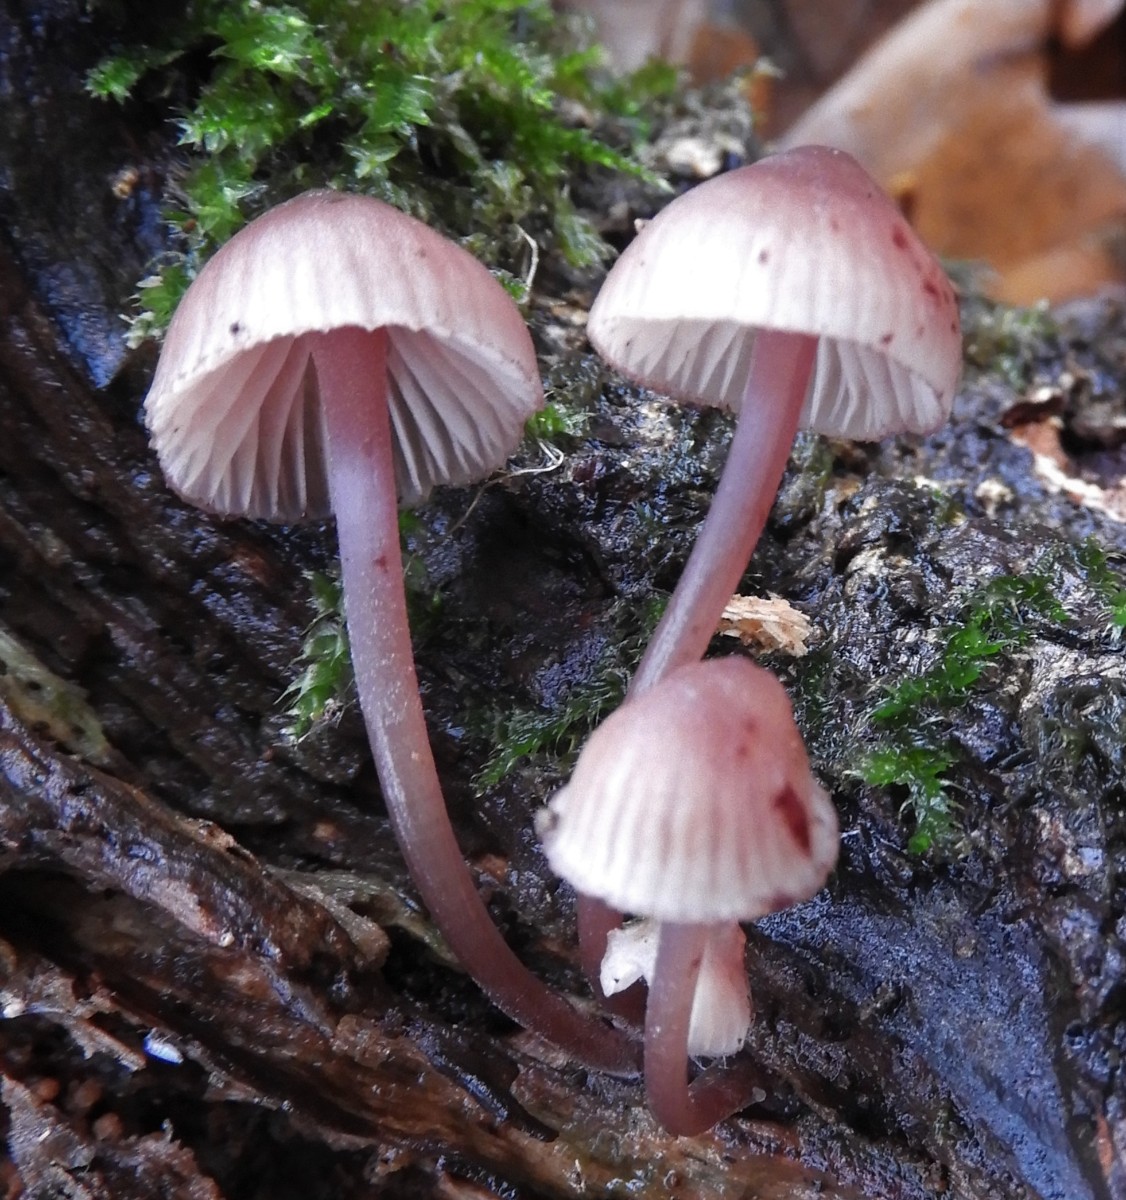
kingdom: Fungi
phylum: Basidiomycota
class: Agaricomycetes
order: Agaricales
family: Mycenaceae
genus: Mycena
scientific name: Mycena haematopus
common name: blødende huesvamp
